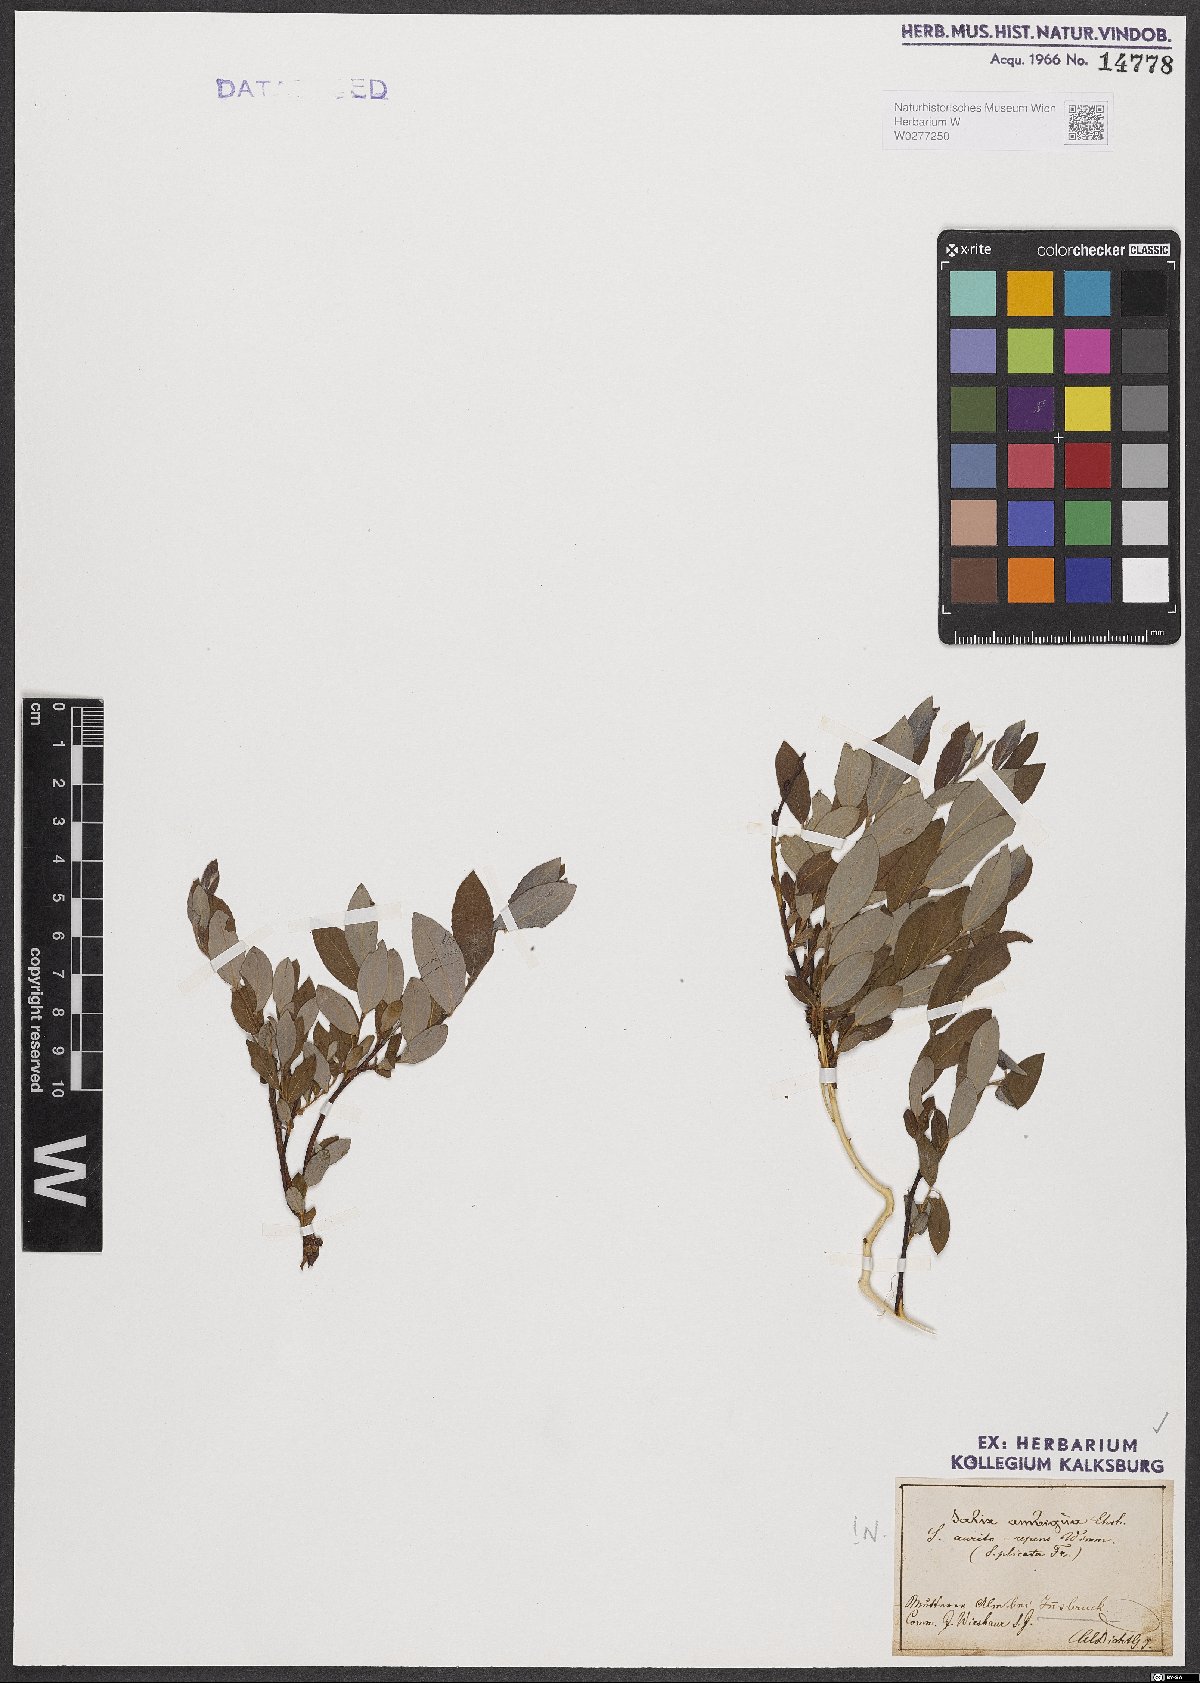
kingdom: Plantae
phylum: Tracheophyta
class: Magnoliopsida
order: Malpighiales
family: Salicaceae
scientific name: Salicaceae
